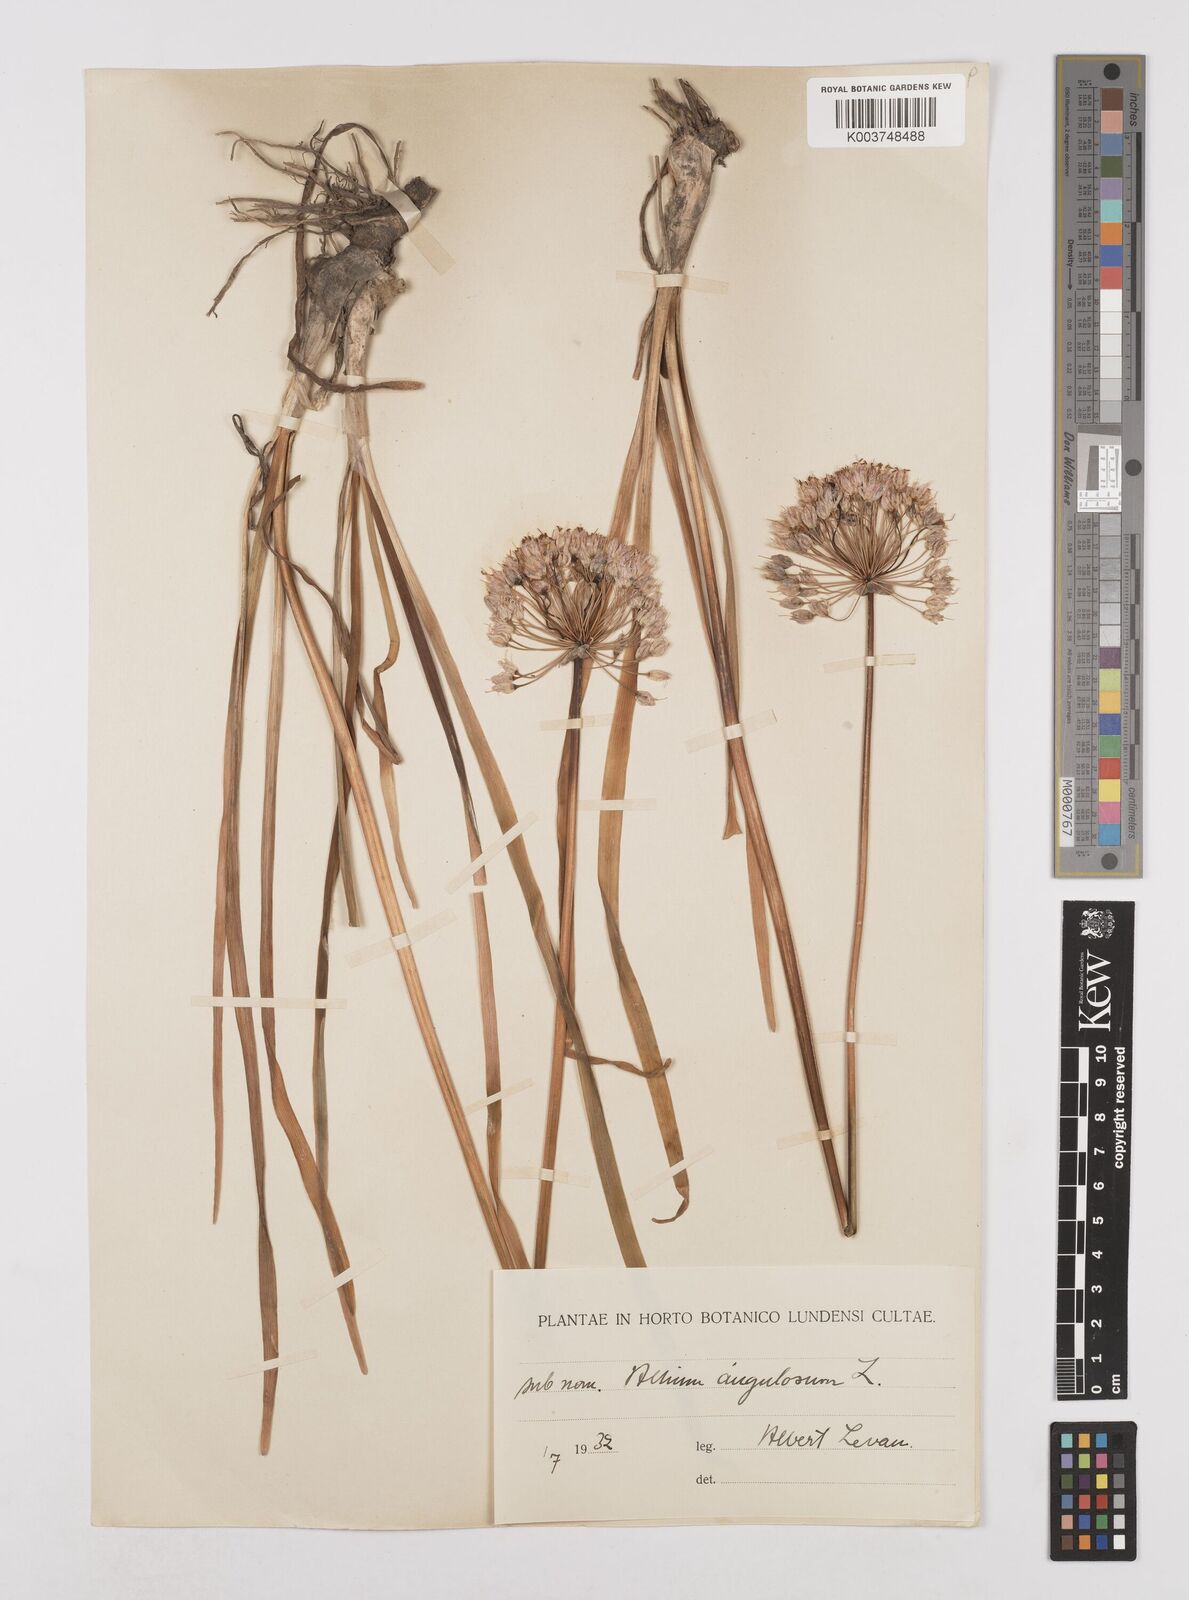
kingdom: Plantae
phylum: Tracheophyta
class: Liliopsida
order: Asparagales
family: Amaryllidaceae
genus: Allium
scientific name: Allium
